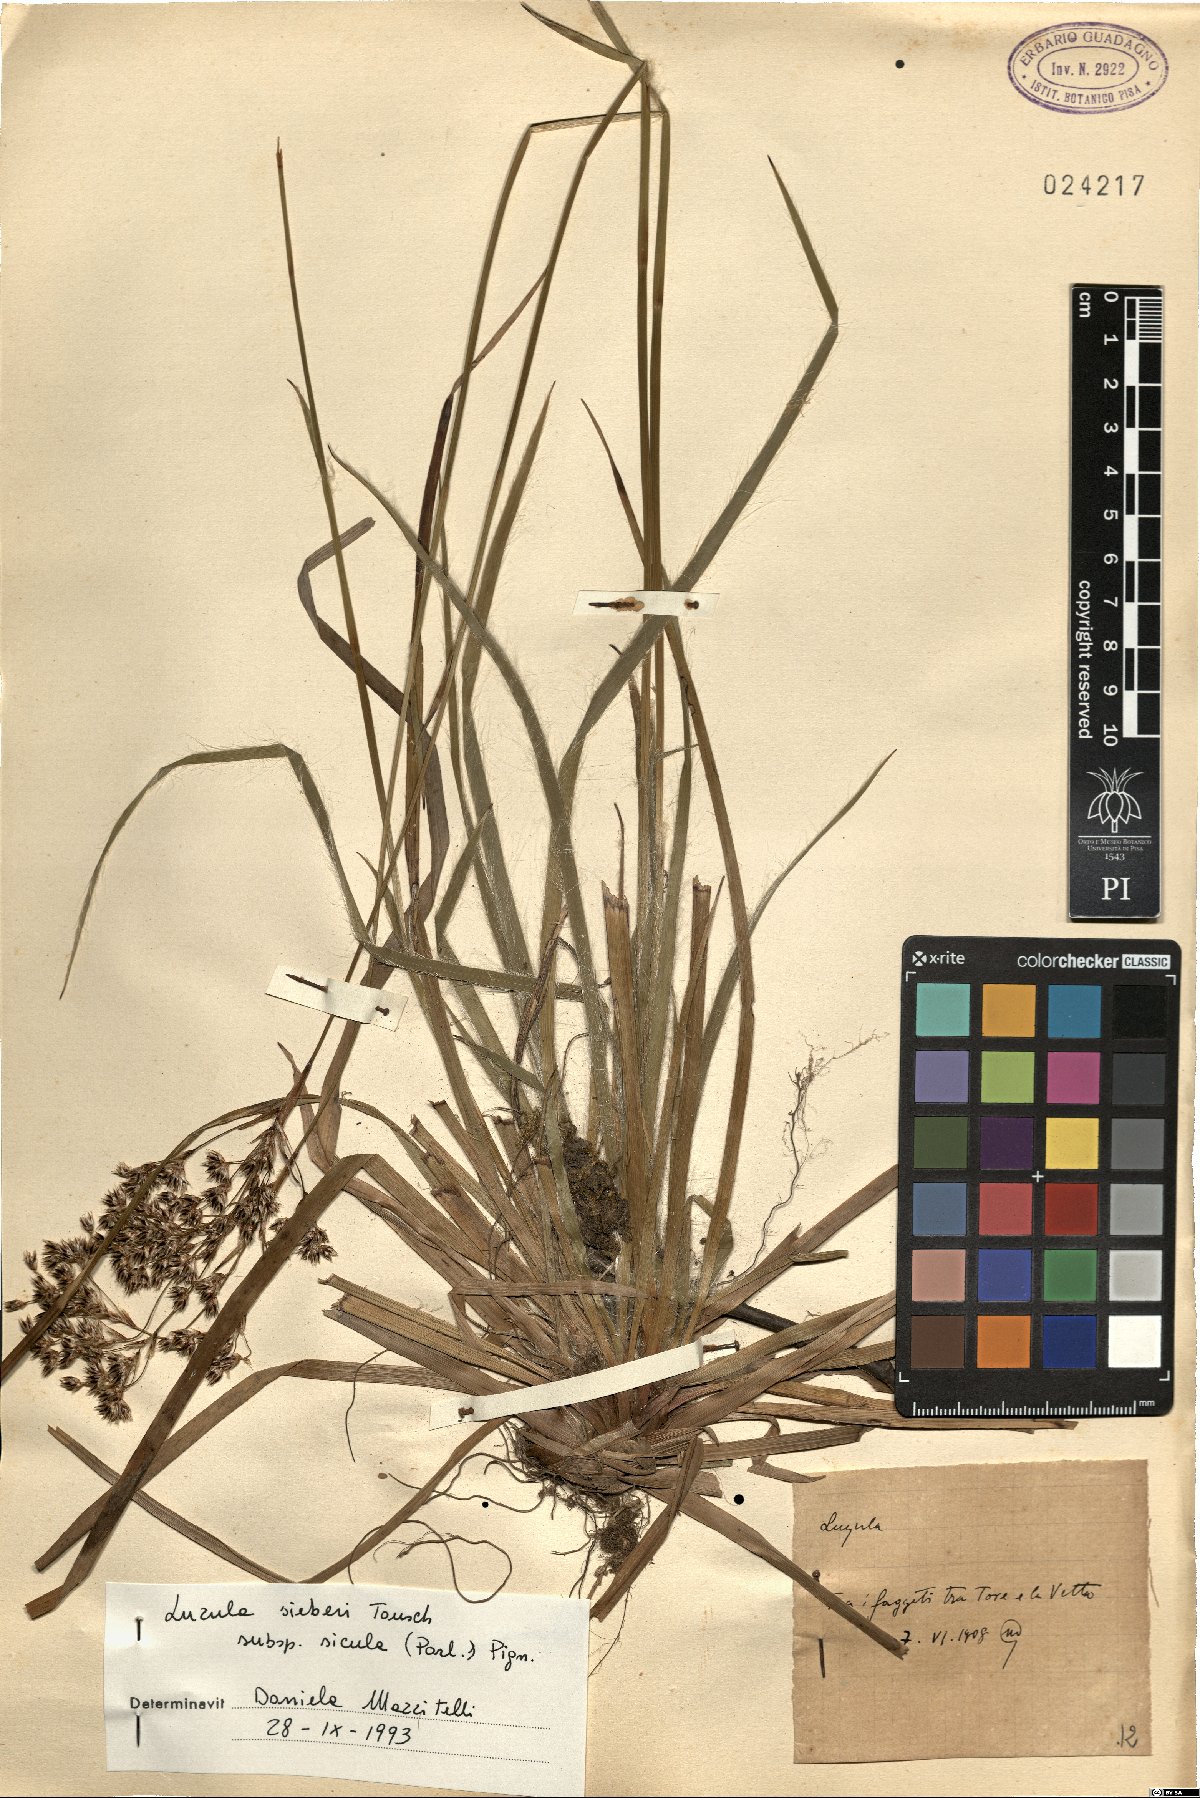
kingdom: Plantae
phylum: Tracheophyta
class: Liliopsida
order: Poales
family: Juncaceae
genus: Luzula
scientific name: Luzula sylvatica
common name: Great wood-rush
